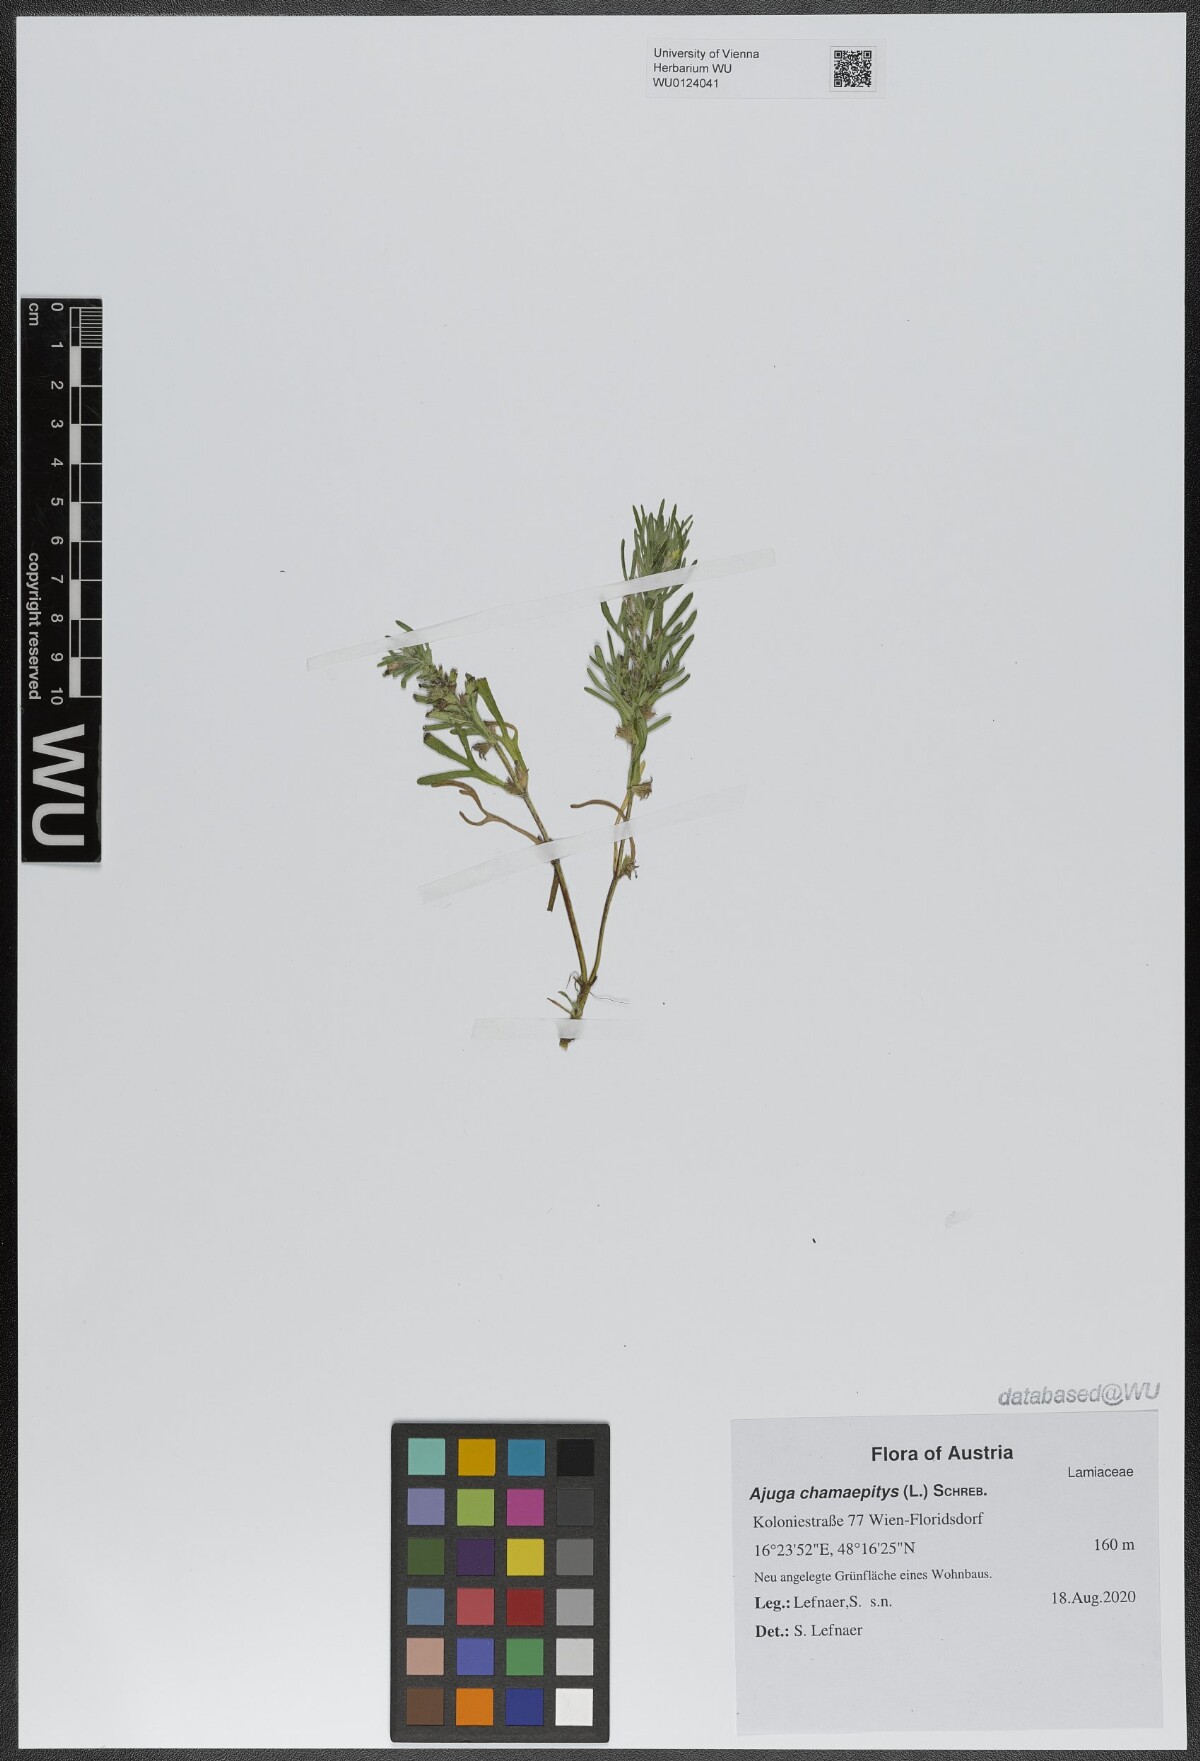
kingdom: Plantae
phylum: Tracheophyta
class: Magnoliopsida
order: Lamiales
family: Lamiaceae
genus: Ajuga
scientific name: Ajuga chamaepitys
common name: Ground-pine
